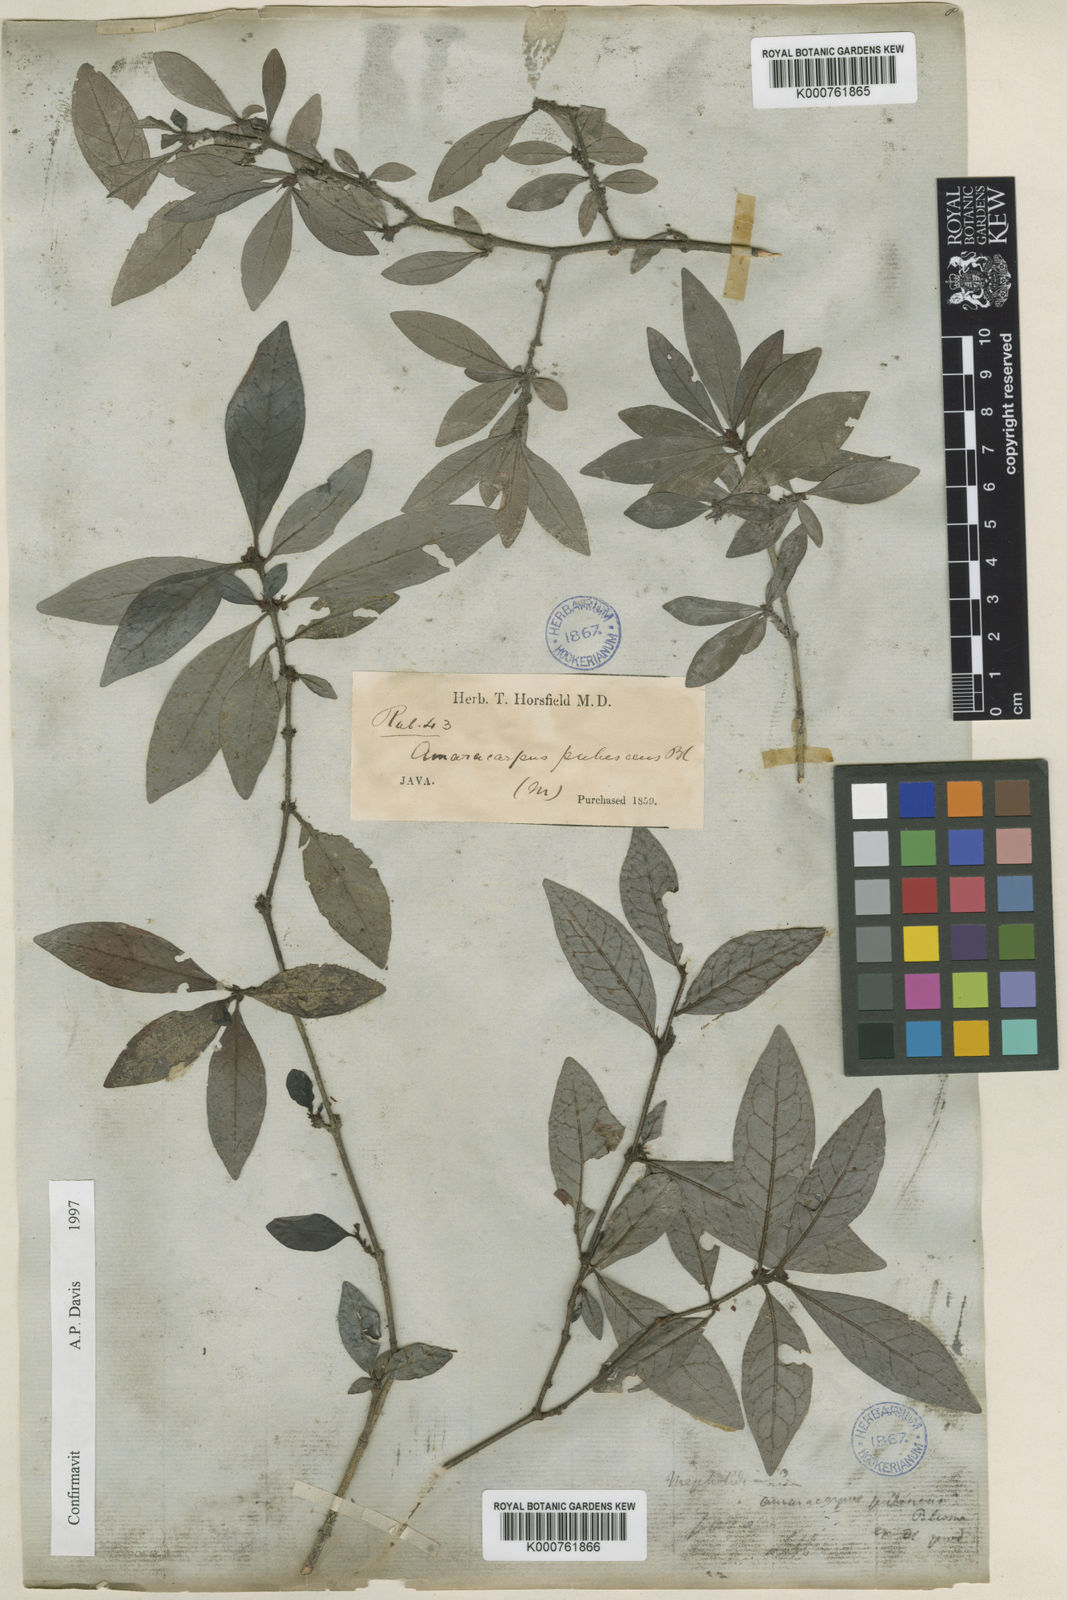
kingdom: Plantae
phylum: Tracheophyta
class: Magnoliopsida
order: Gentianales
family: Rubiaceae
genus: Amaracarpus
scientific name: Amaracarpus pubescens
